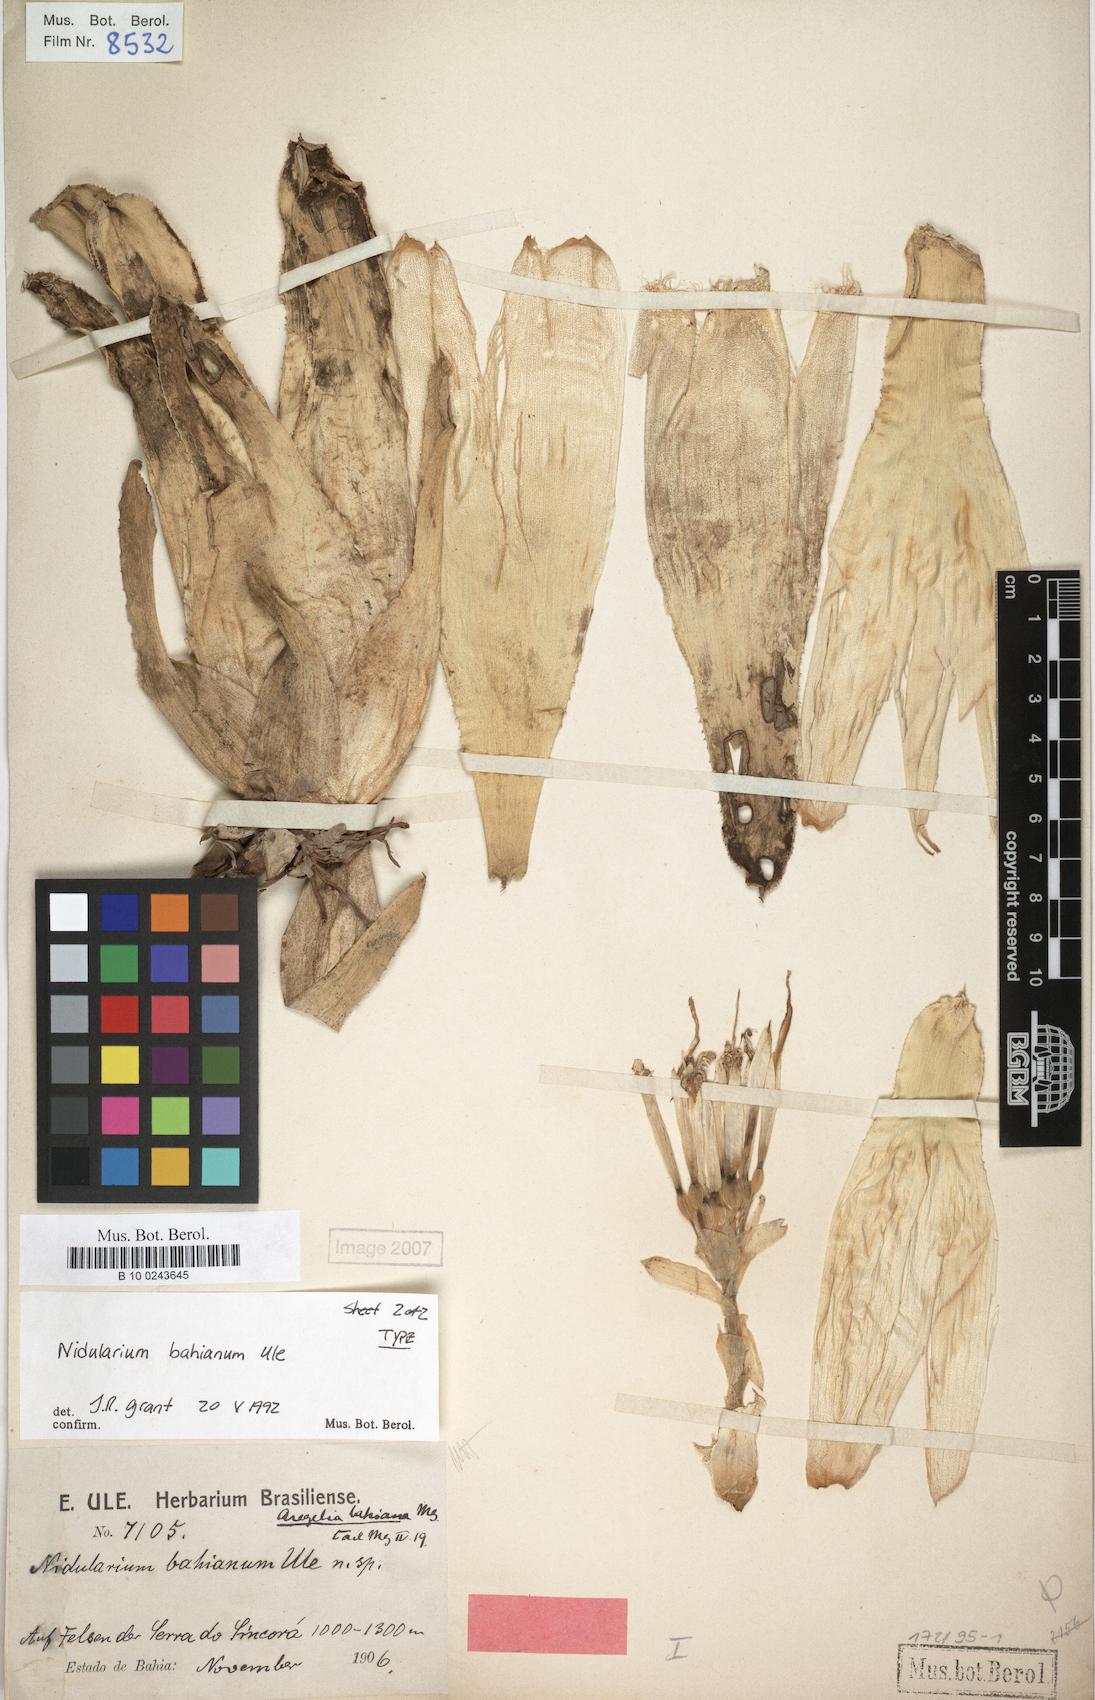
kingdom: Plantae
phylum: Tracheophyta
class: Liliopsida
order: Poales
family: Bromeliaceae
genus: Neoregelia
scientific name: Neoregelia bahiana
